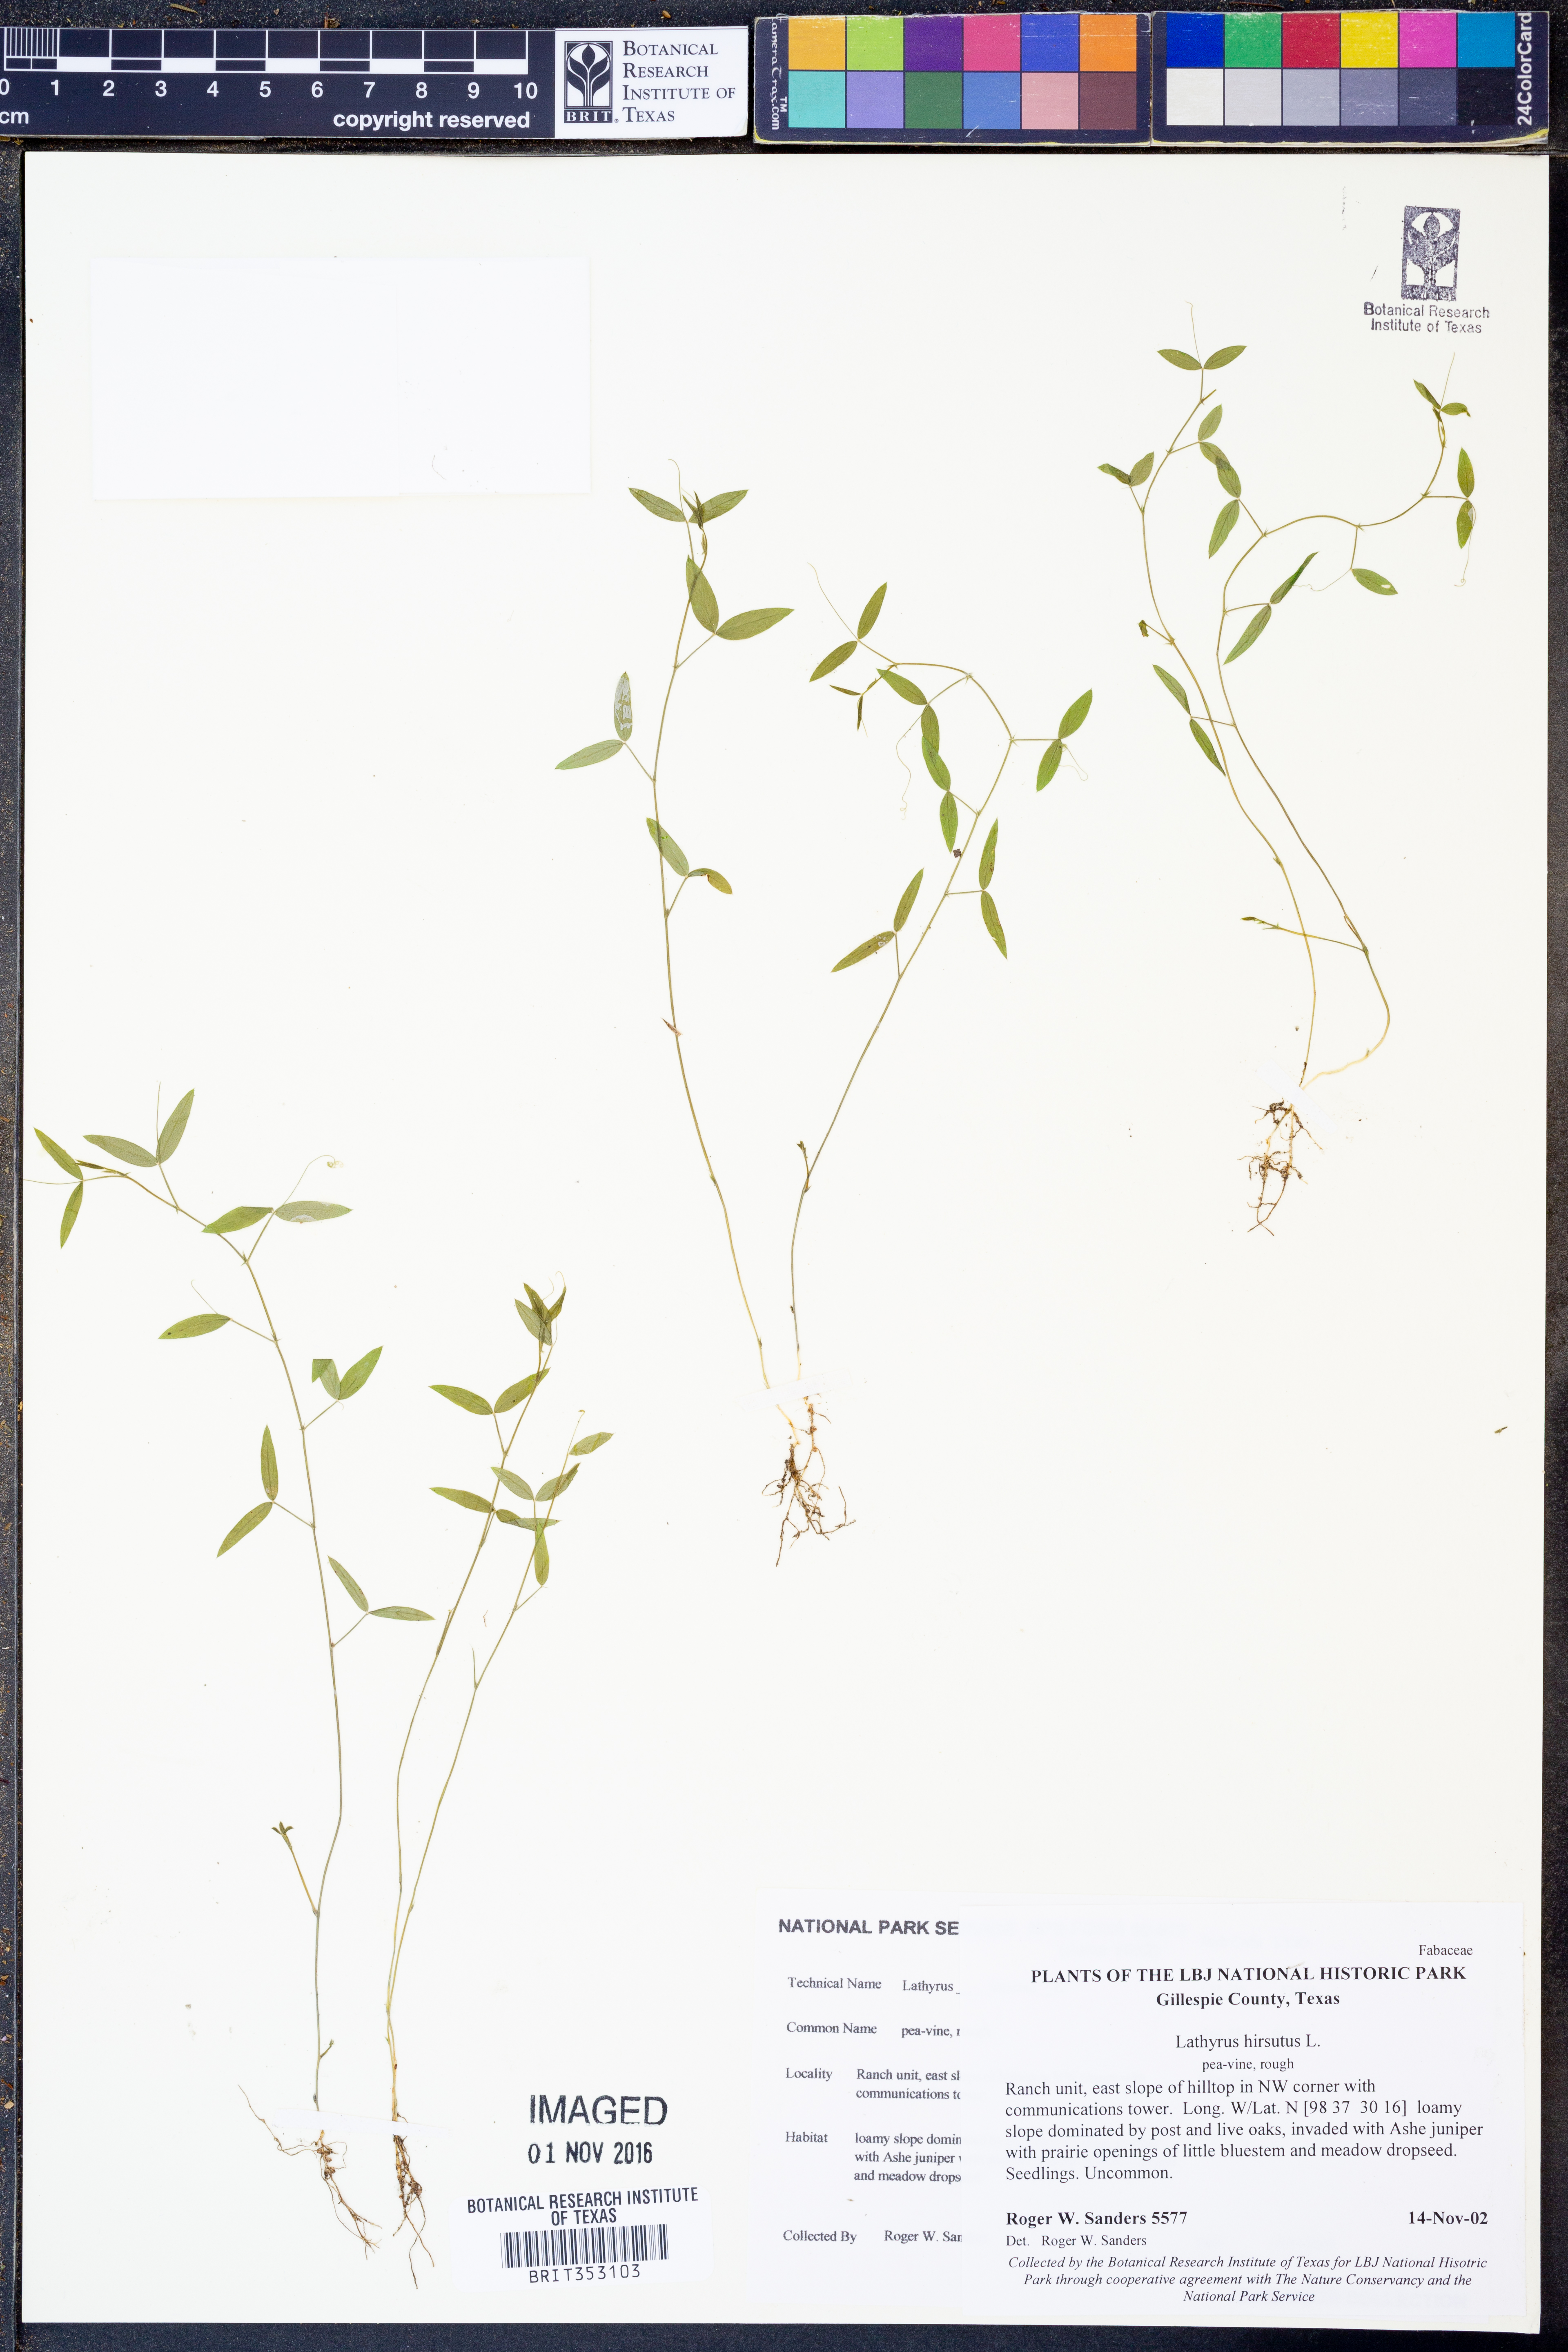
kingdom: Plantae
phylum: Tracheophyta
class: Magnoliopsida
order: Fabales
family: Fabaceae
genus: Lathyrus
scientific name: Lathyrus hirsutus
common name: Hairy vetchling
